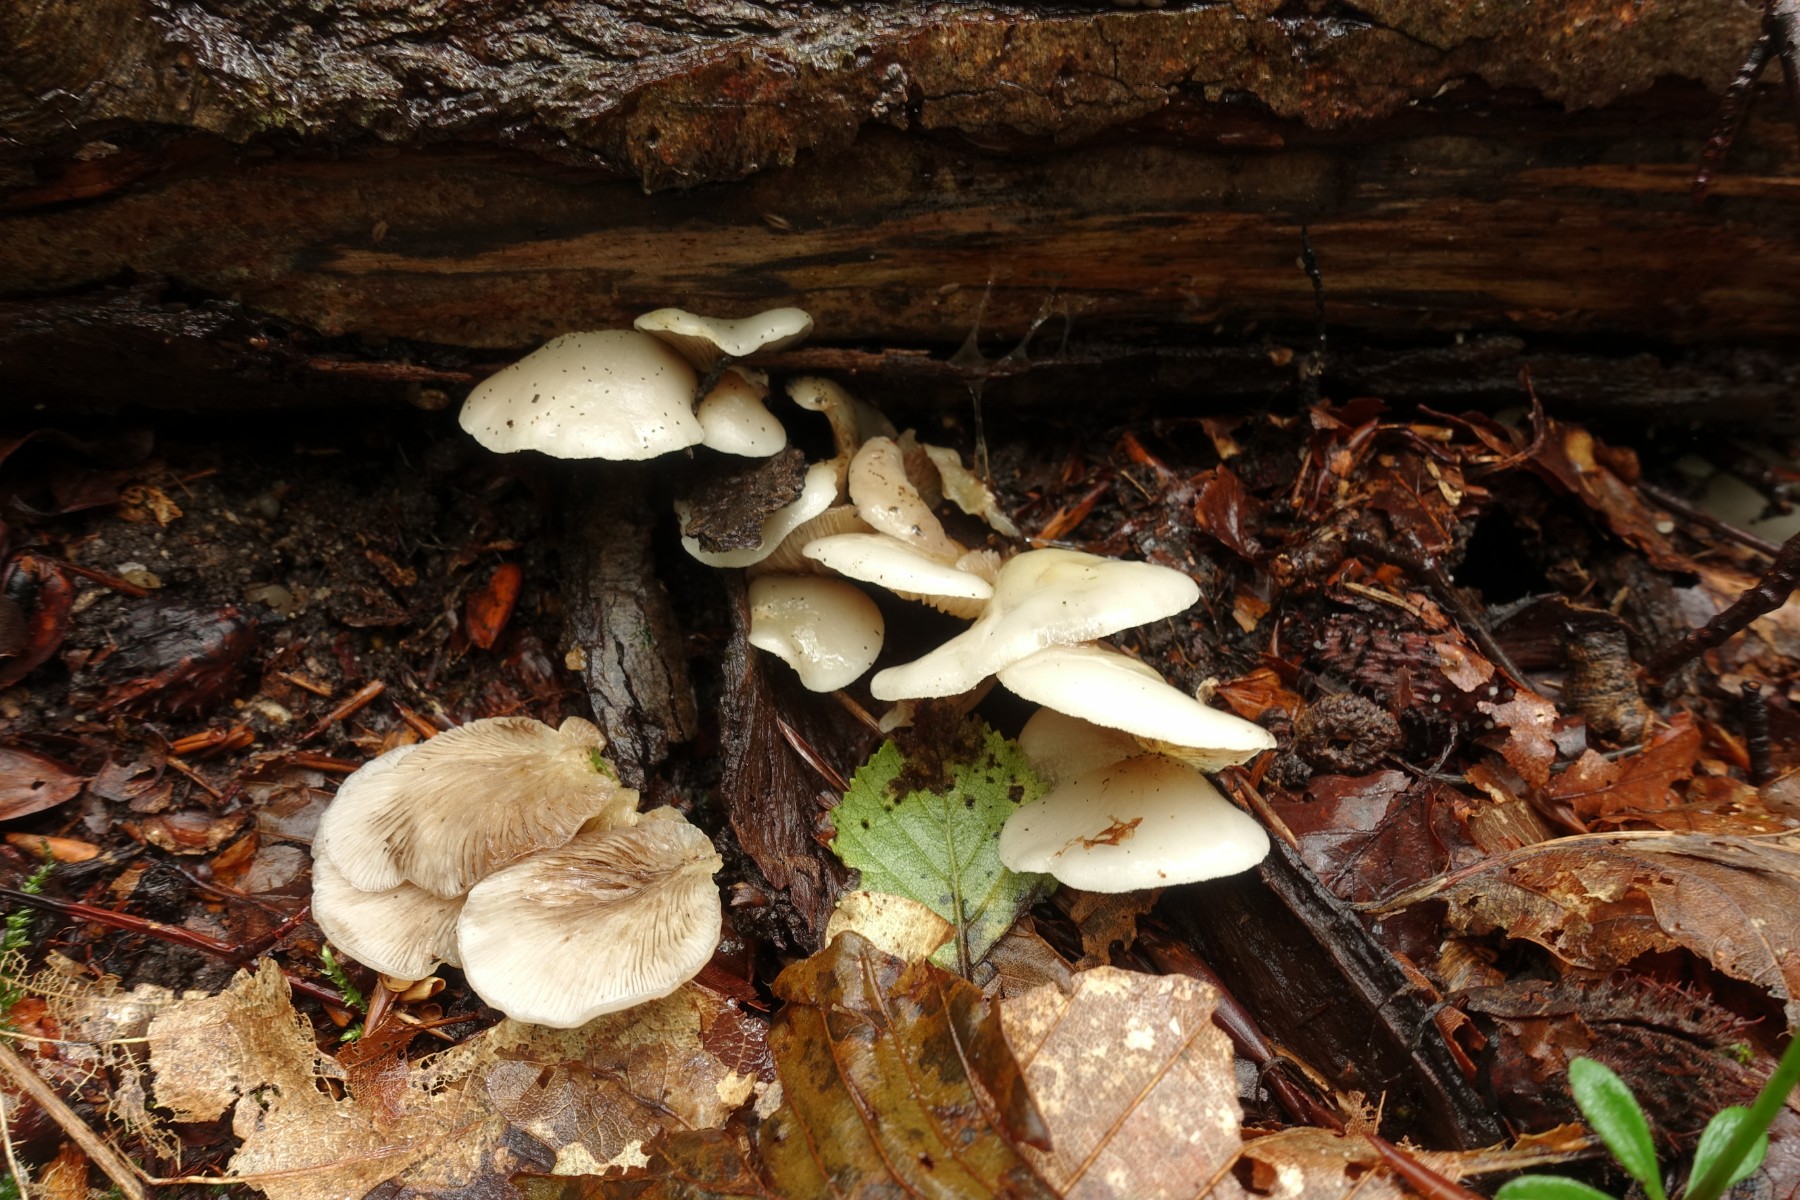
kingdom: Fungi
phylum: Basidiomycota
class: Agaricomycetes
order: Agaricales
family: Crepidotaceae
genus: Crepidotus
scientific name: Crepidotus mollis
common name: blød muslingesvamp
